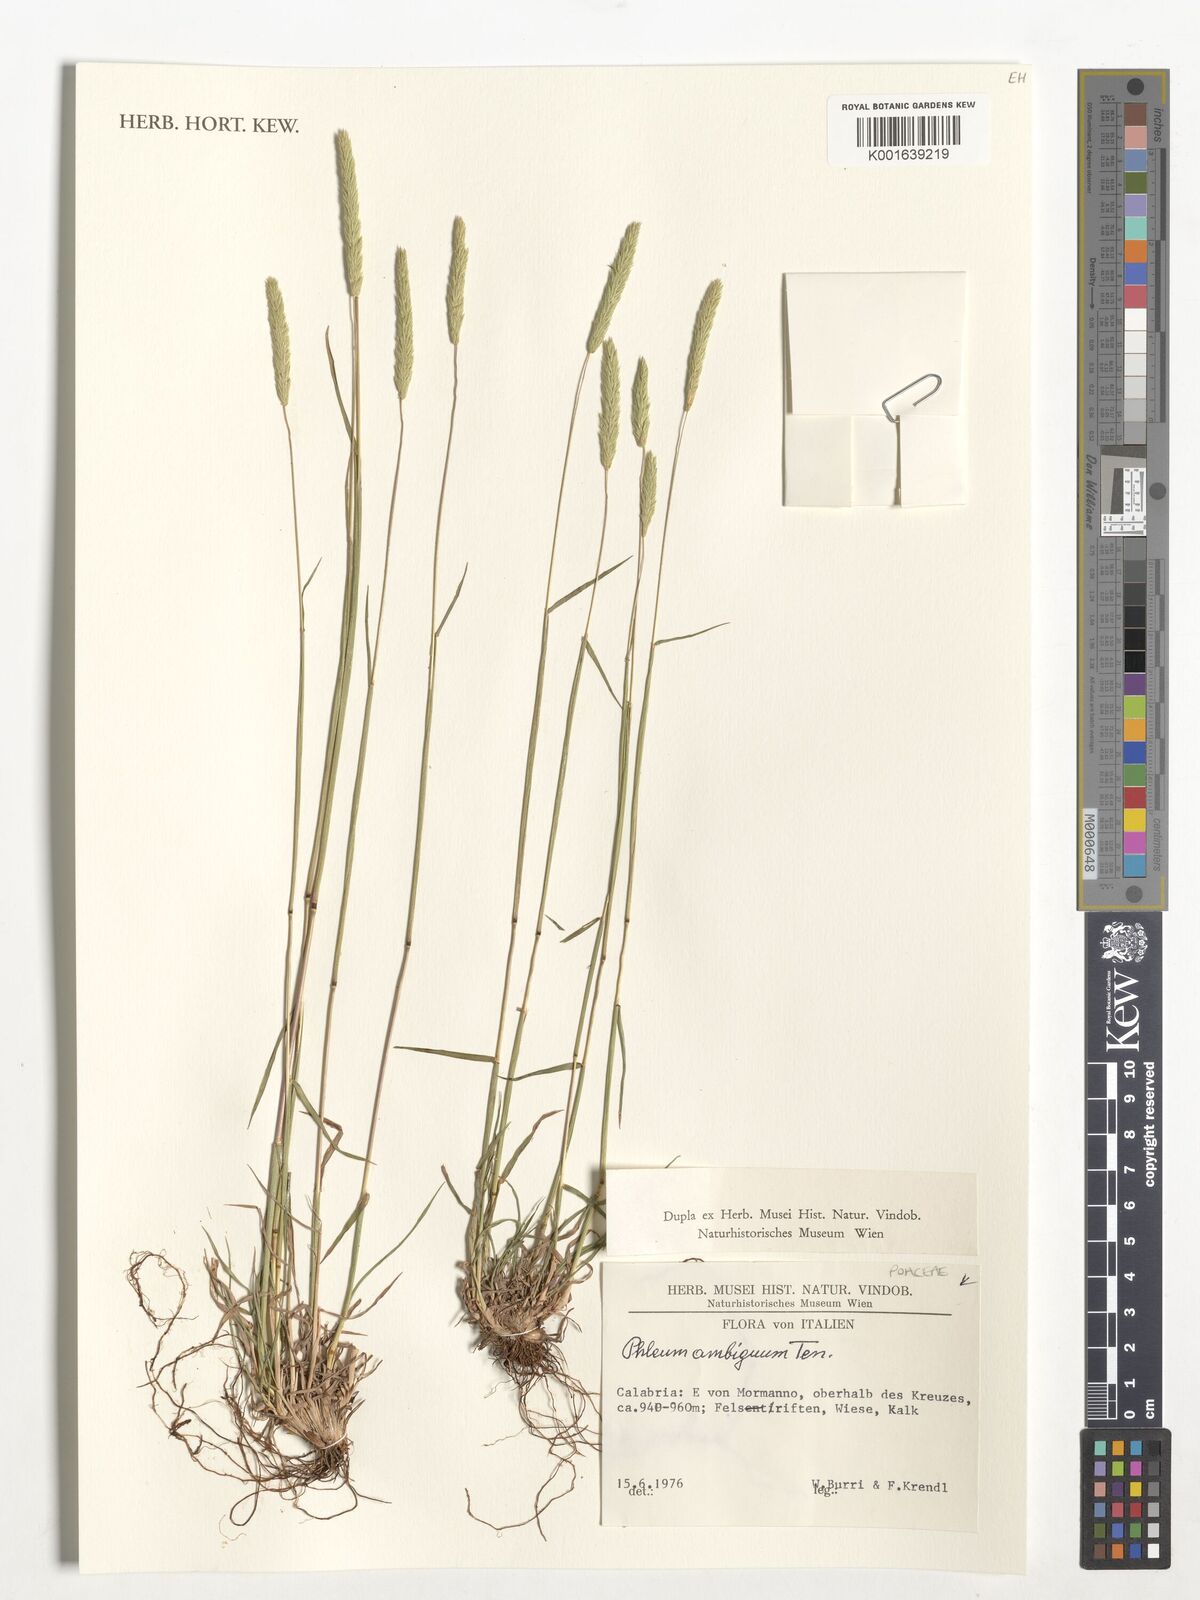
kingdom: Plantae
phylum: Tracheophyta
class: Liliopsida
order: Poales
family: Poaceae
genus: Phleum
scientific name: Phleum hirsutum
